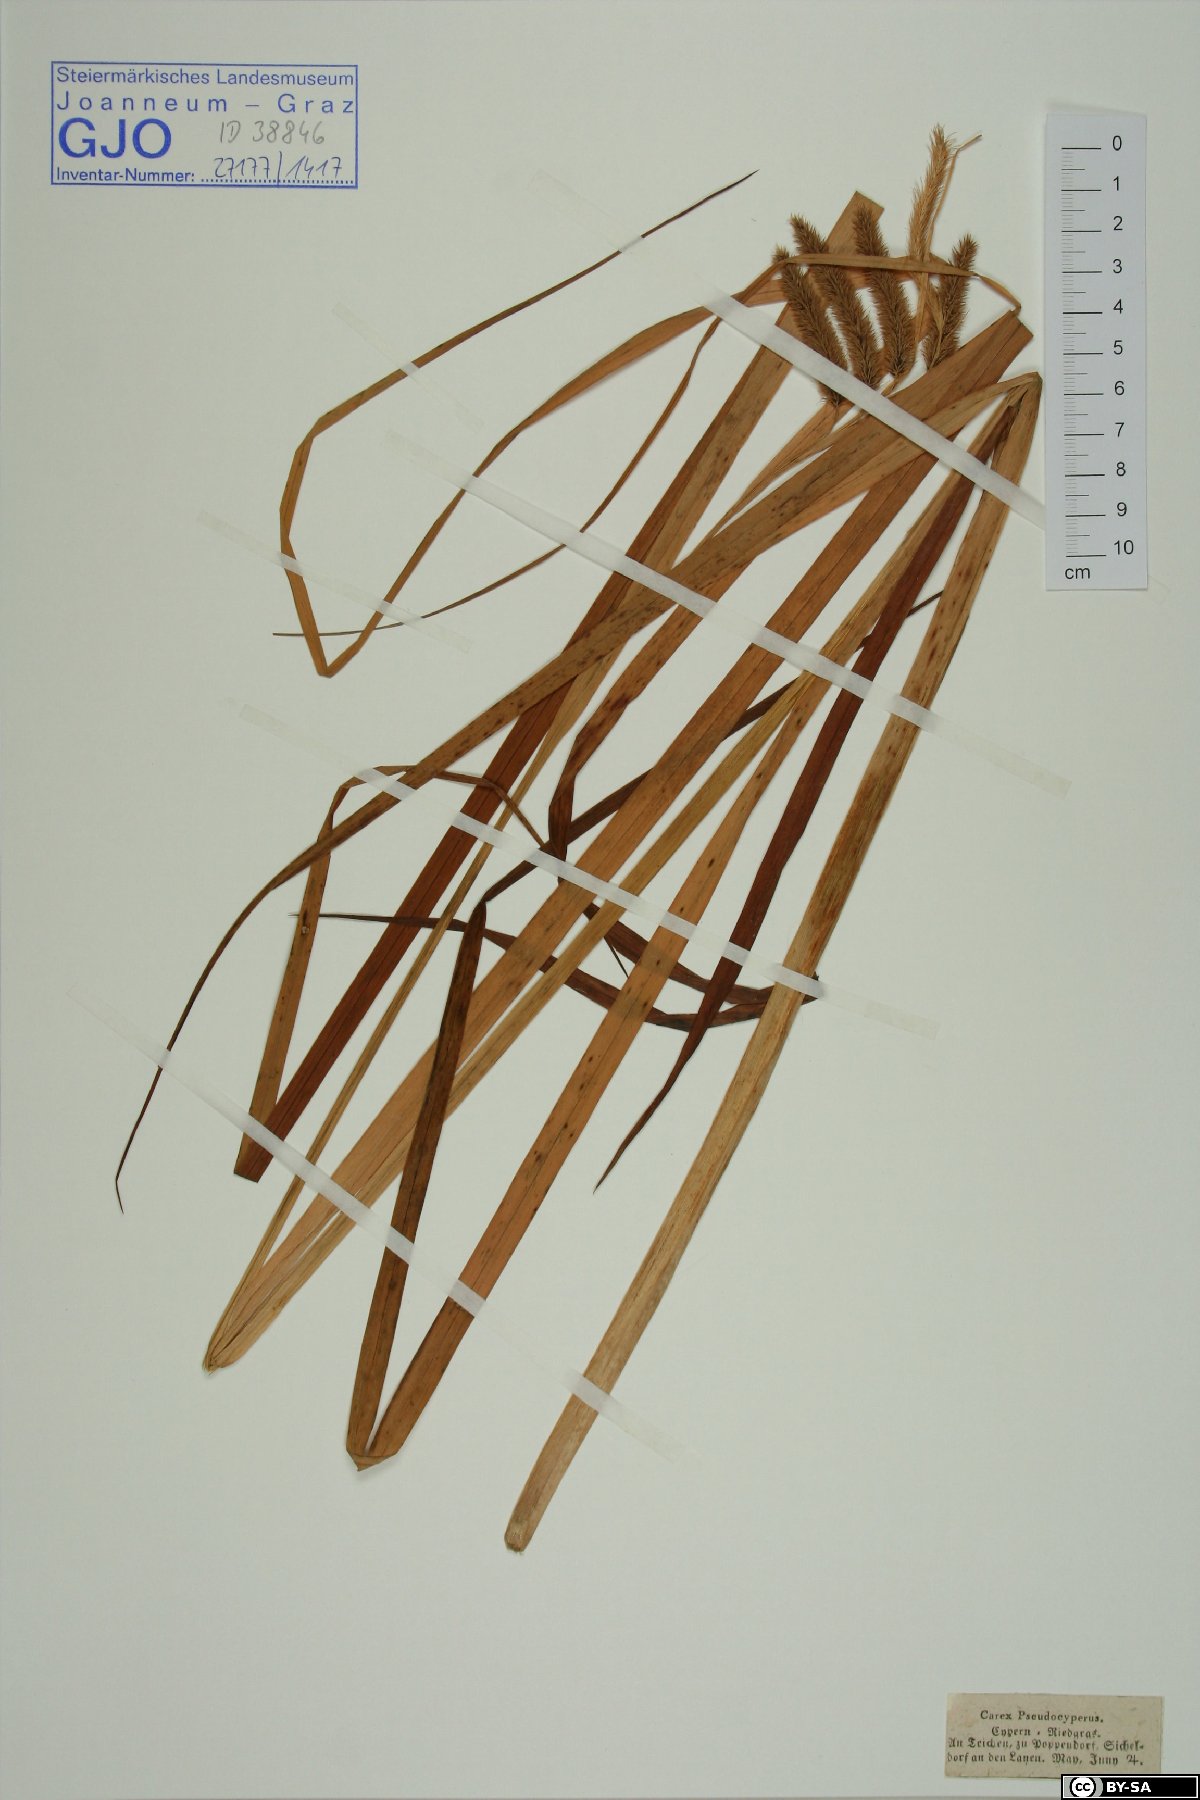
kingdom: Plantae
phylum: Tracheophyta
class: Liliopsida
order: Poales
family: Cyperaceae
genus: Carex
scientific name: Carex pseudocyperus
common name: Cyperus sedge
